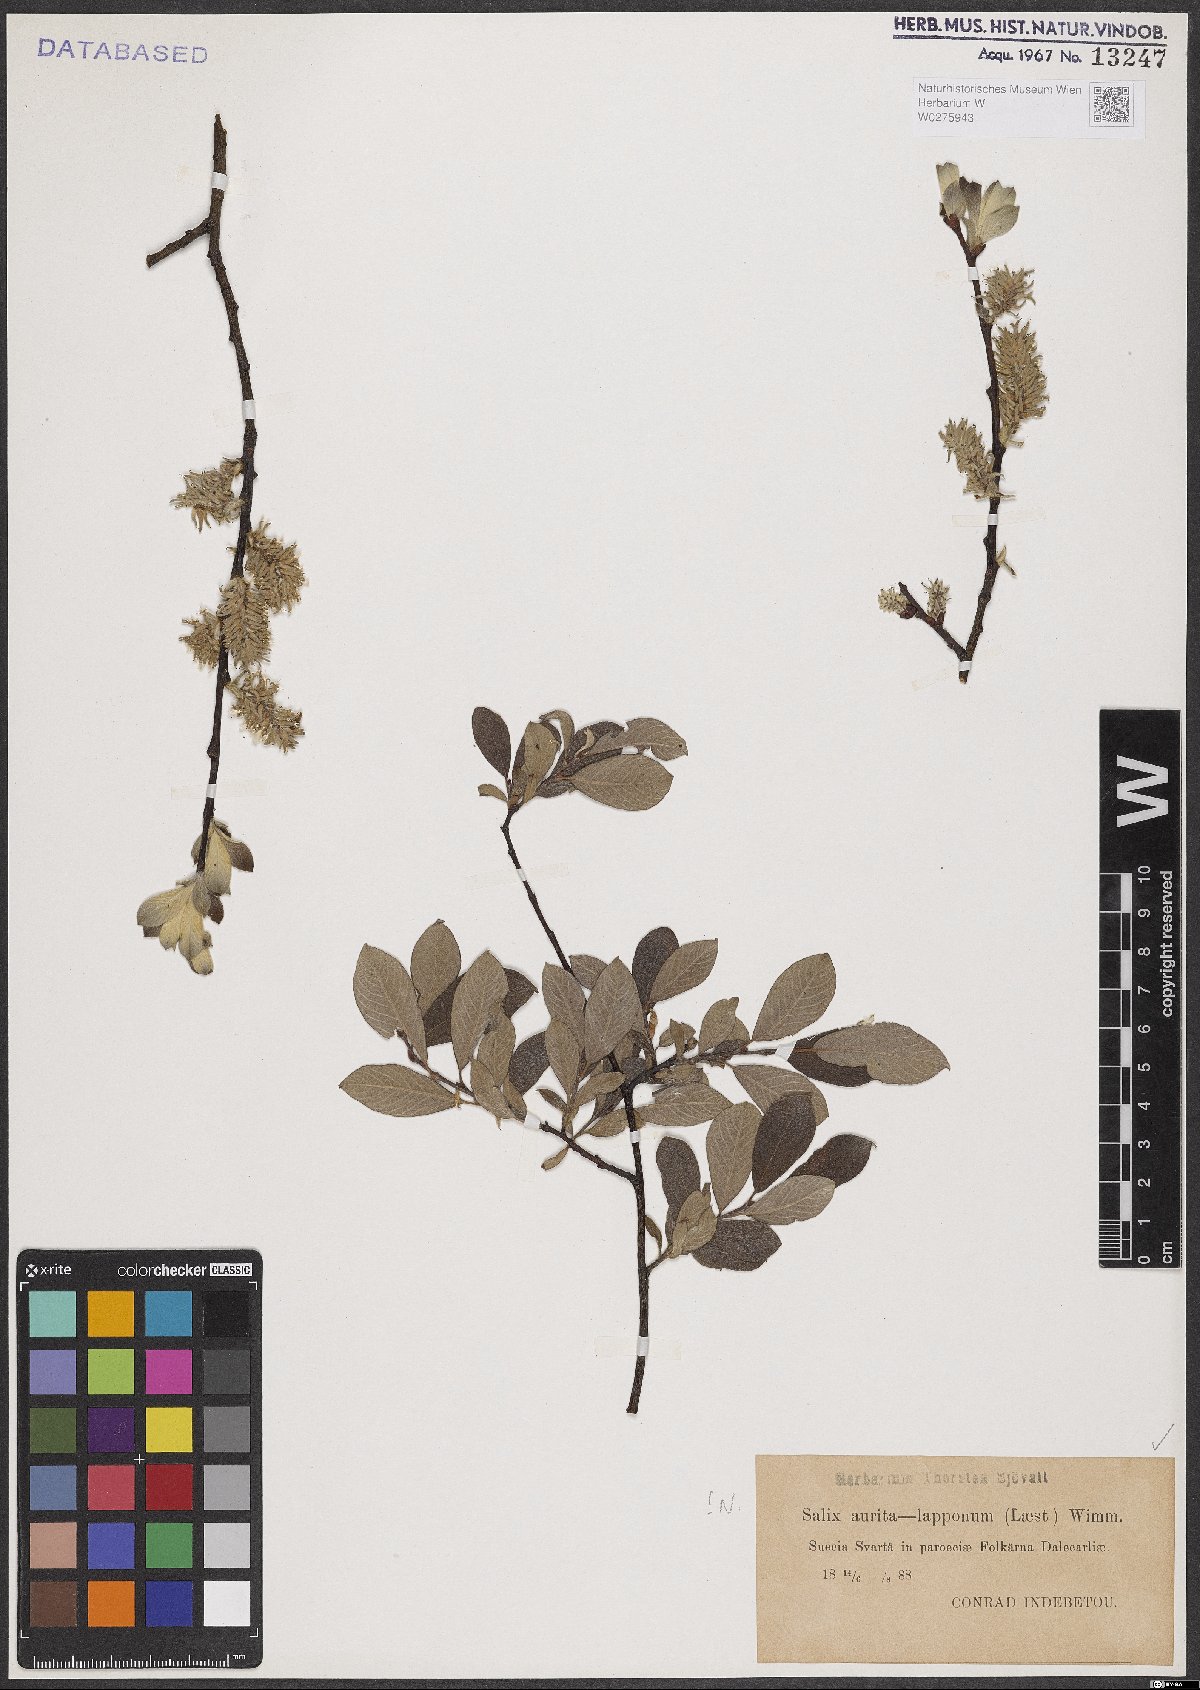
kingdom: Plantae
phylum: Tracheophyta
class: Magnoliopsida
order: Malpighiales
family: Salicaceae
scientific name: Salicaceae
